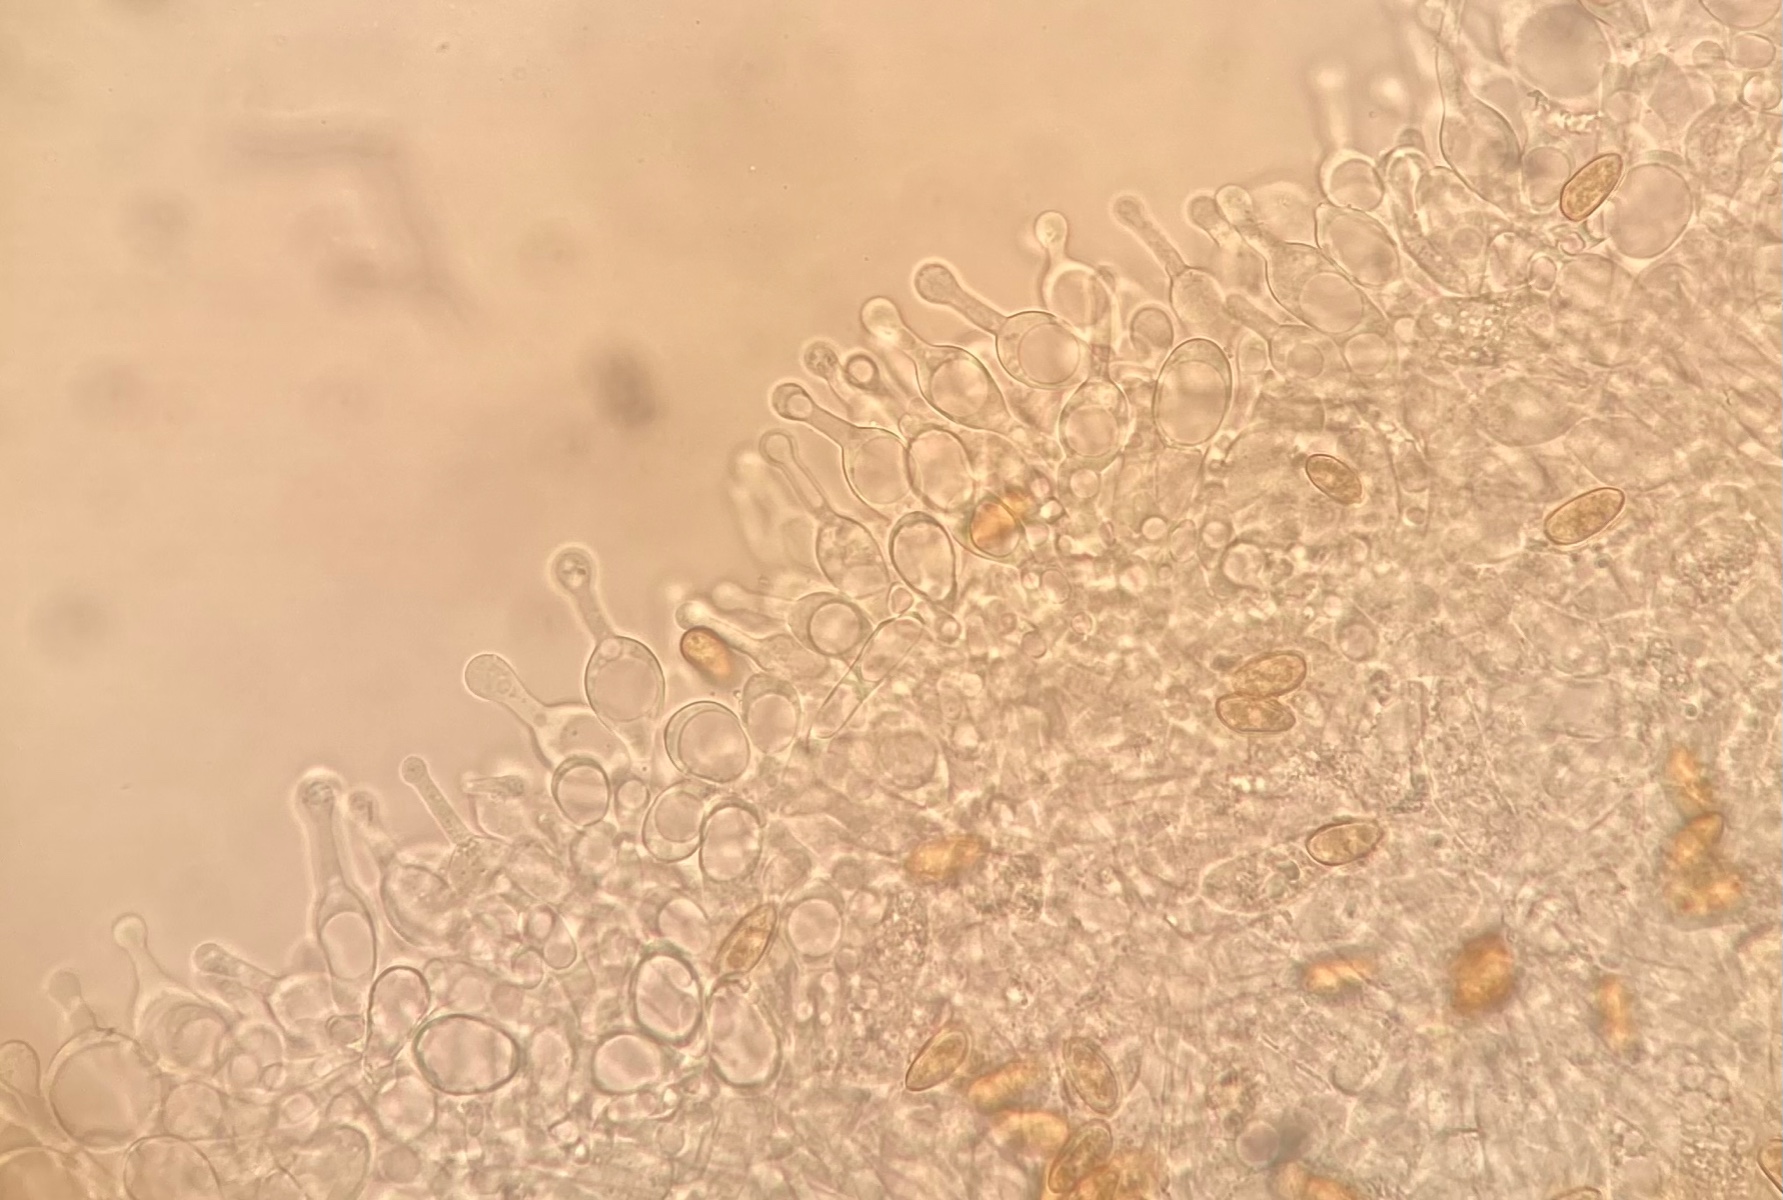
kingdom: Fungi
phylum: Basidiomycota
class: Agaricomycetes
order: Agaricales
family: Hymenogastraceae
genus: Galerina
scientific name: Galerina clavata
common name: kær-hjelmhat
